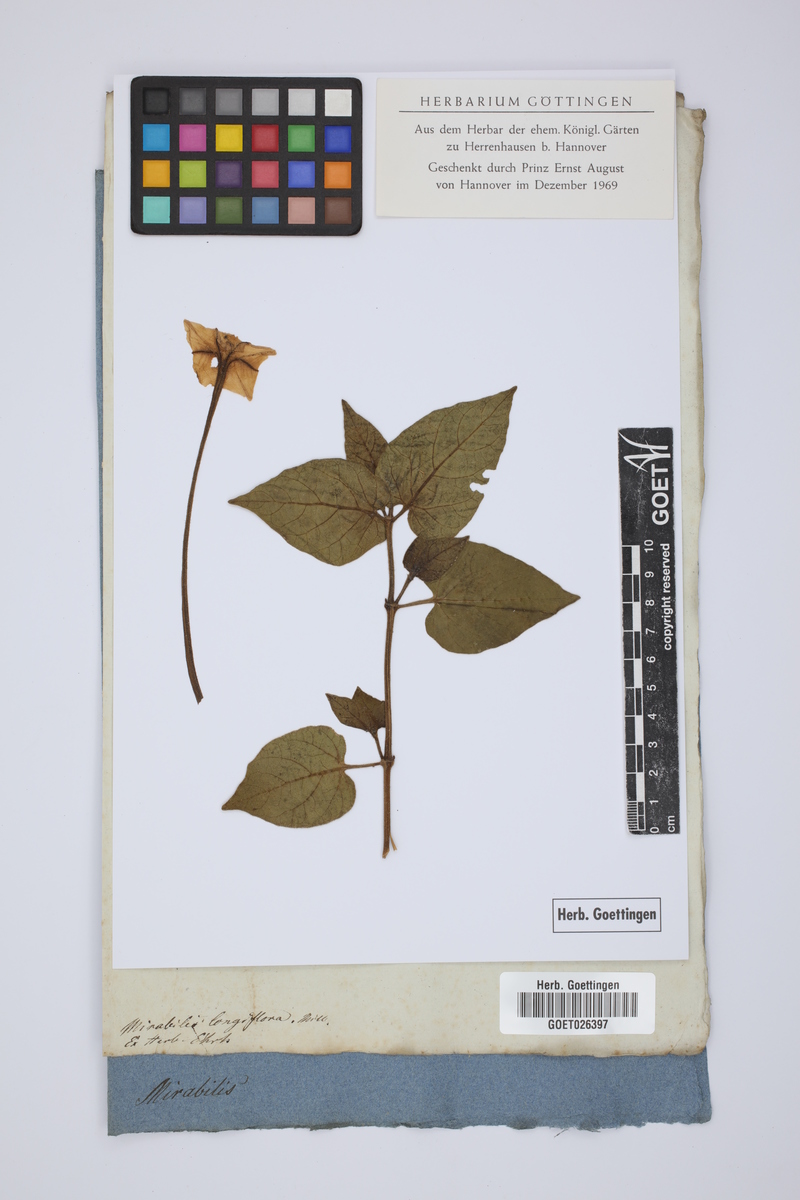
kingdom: Plantae
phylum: Tracheophyta
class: Magnoliopsida
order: Caryophyllales
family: Nyctaginaceae
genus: Mirabilis
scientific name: Mirabilis longiflora
